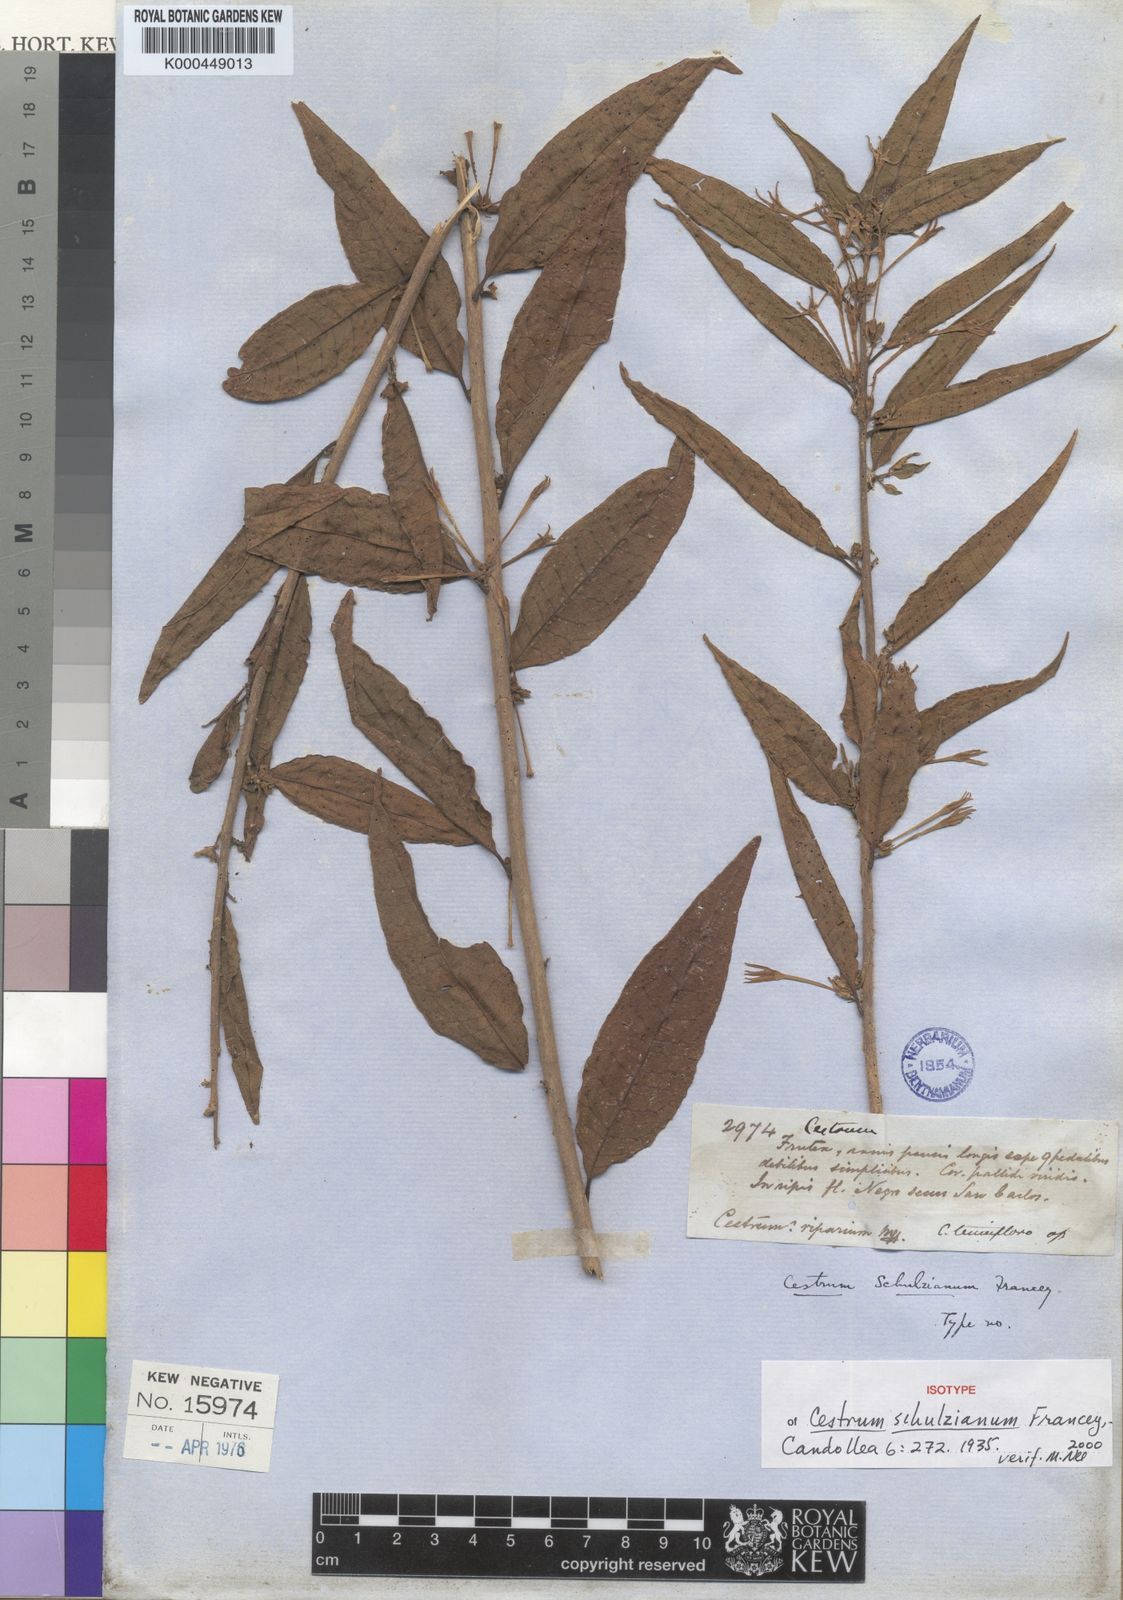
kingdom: Plantae
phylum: Tracheophyta
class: Magnoliopsida
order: Solanales
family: Solanaceae
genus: Cestrum
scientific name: Cestrum schulzianum
